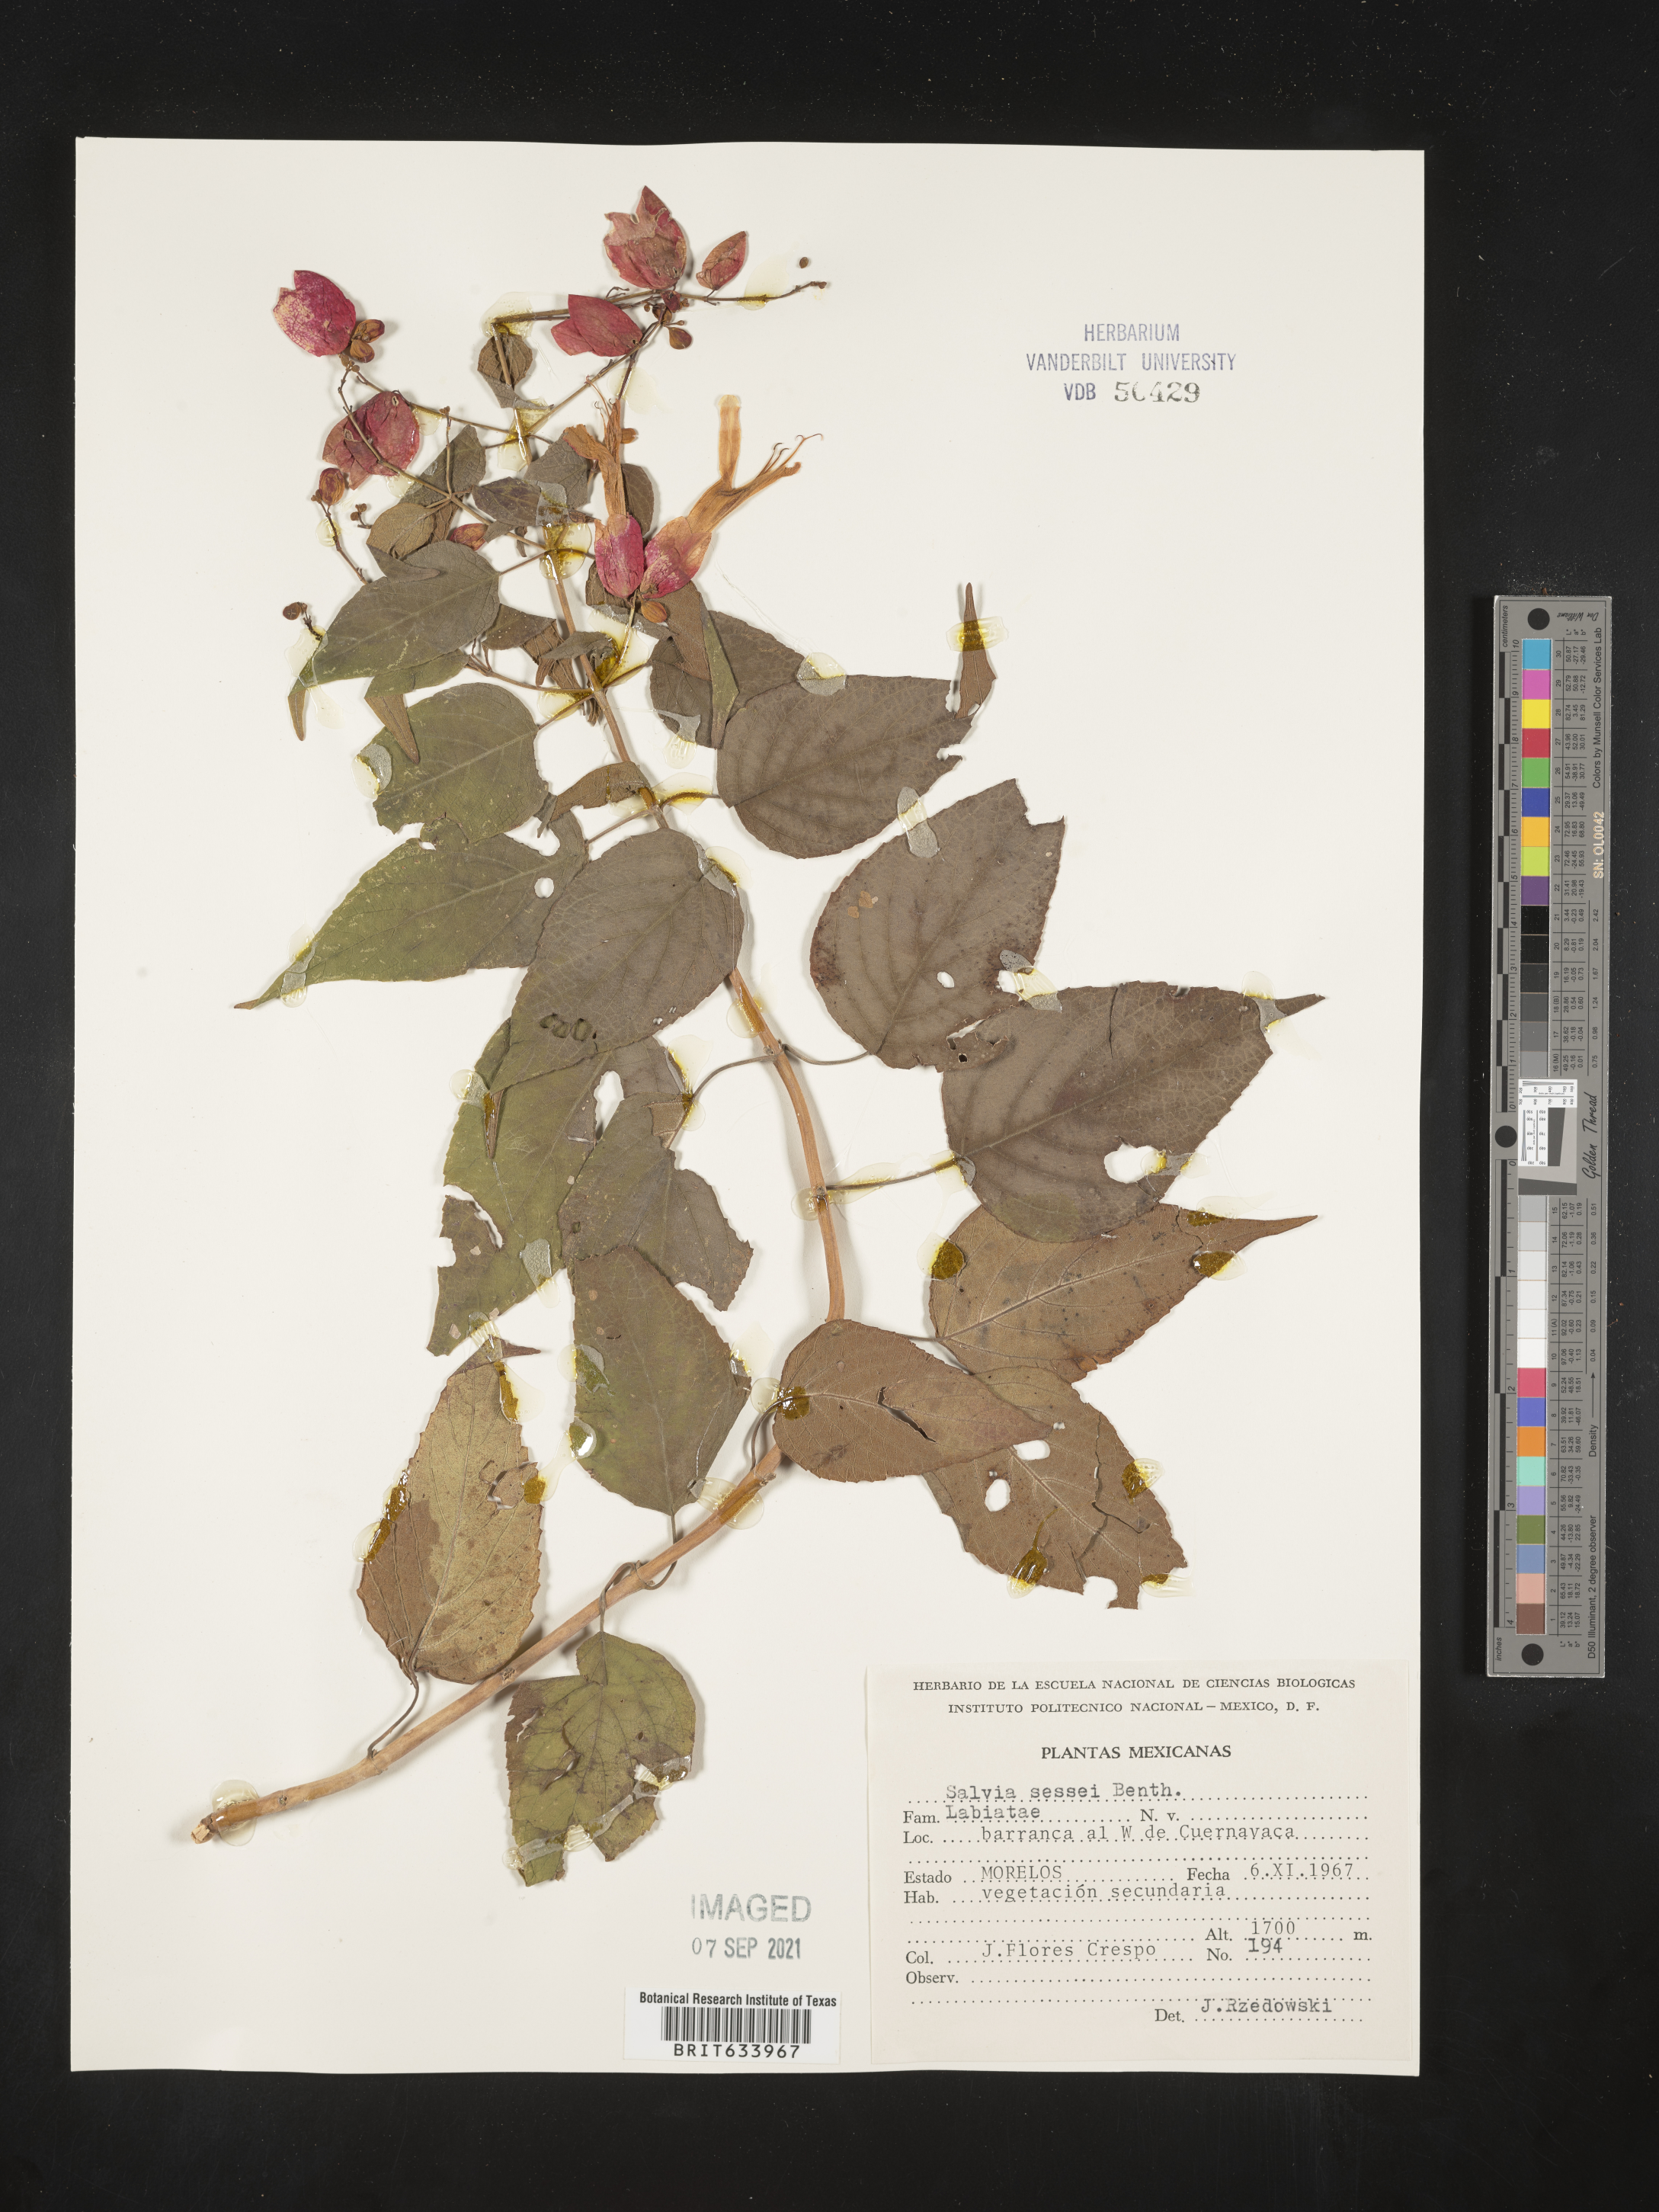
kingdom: Plantae
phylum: Tracheophyta
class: Magnoliopsida
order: Lamiales
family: Lamiaceae
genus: Salvia
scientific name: Salvia
